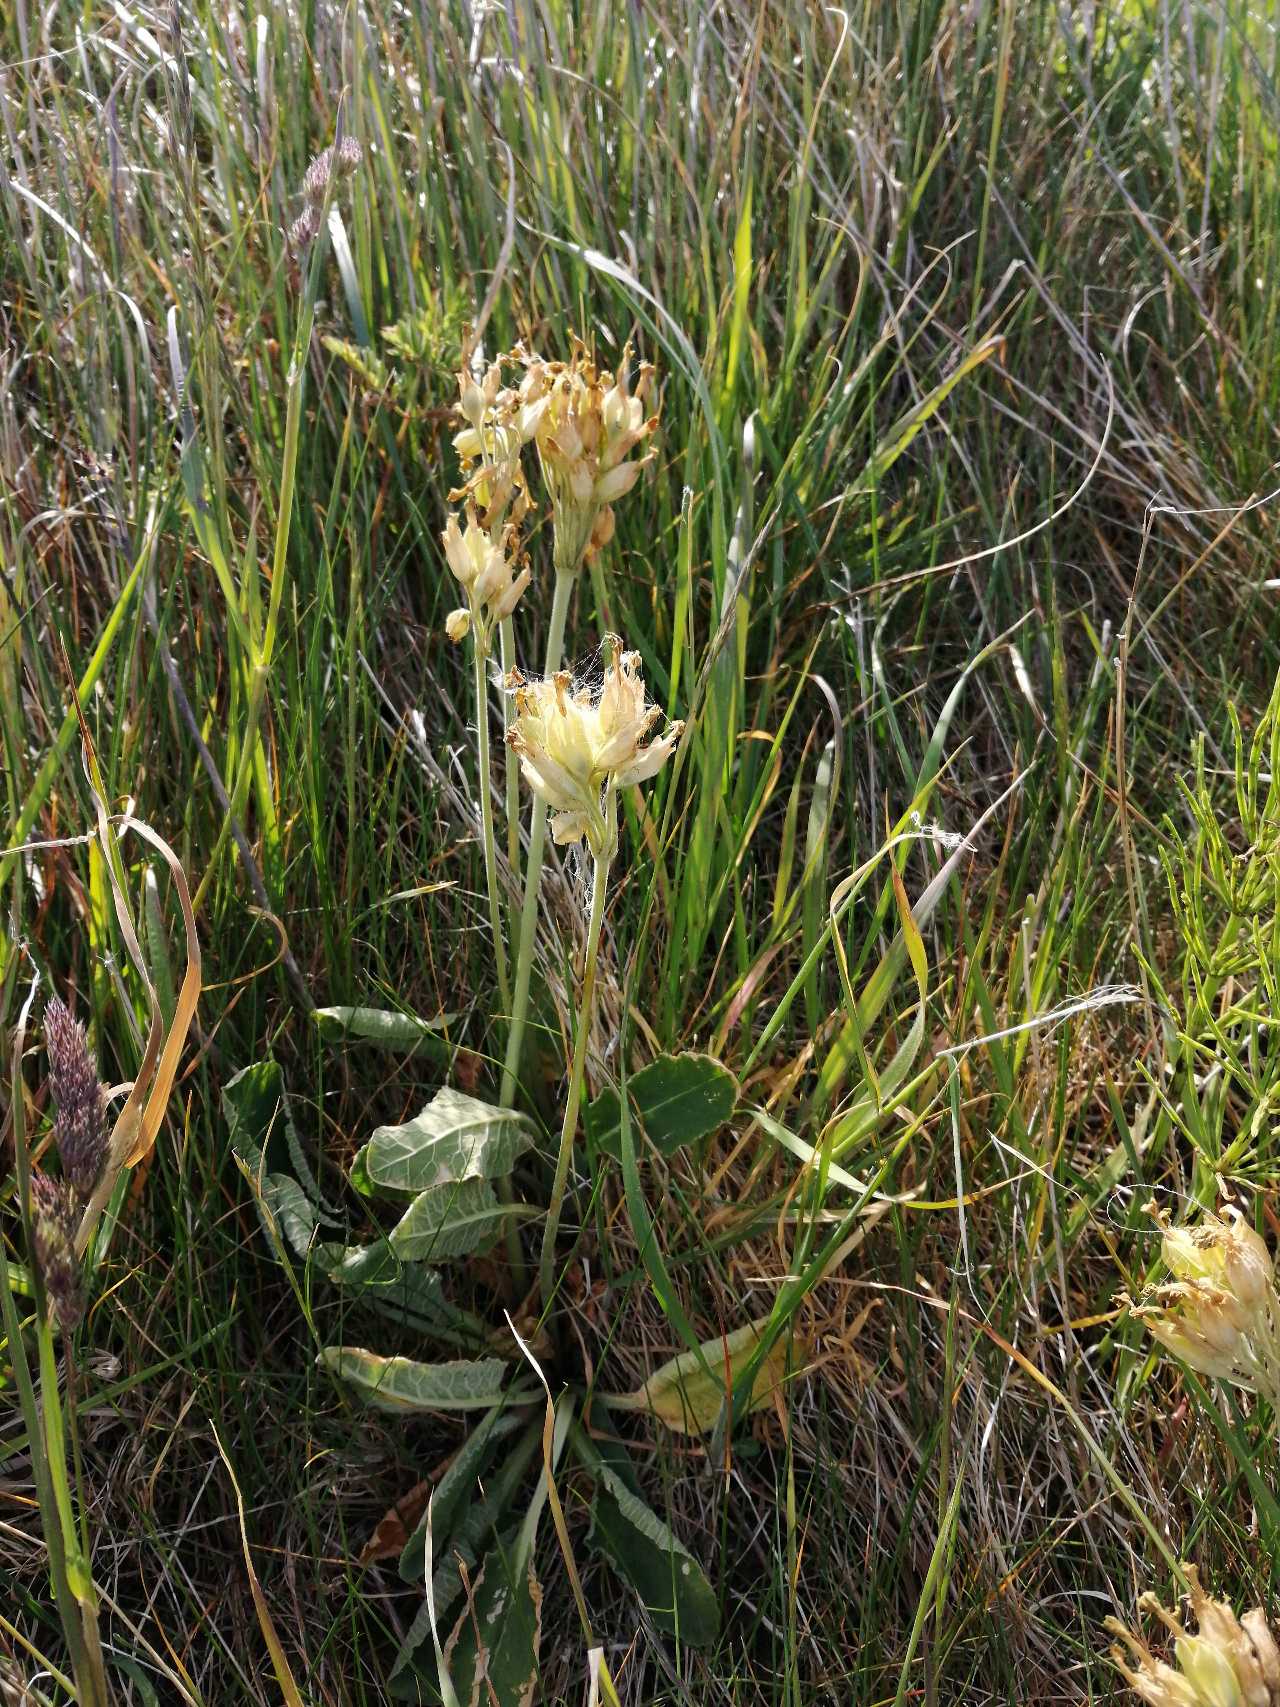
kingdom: Plantae
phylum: Tracheophyta
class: Magnoliopsida
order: Ericales
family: Primulaceae
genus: Primula
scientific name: Primula veris
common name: Hulkravet kodriver
